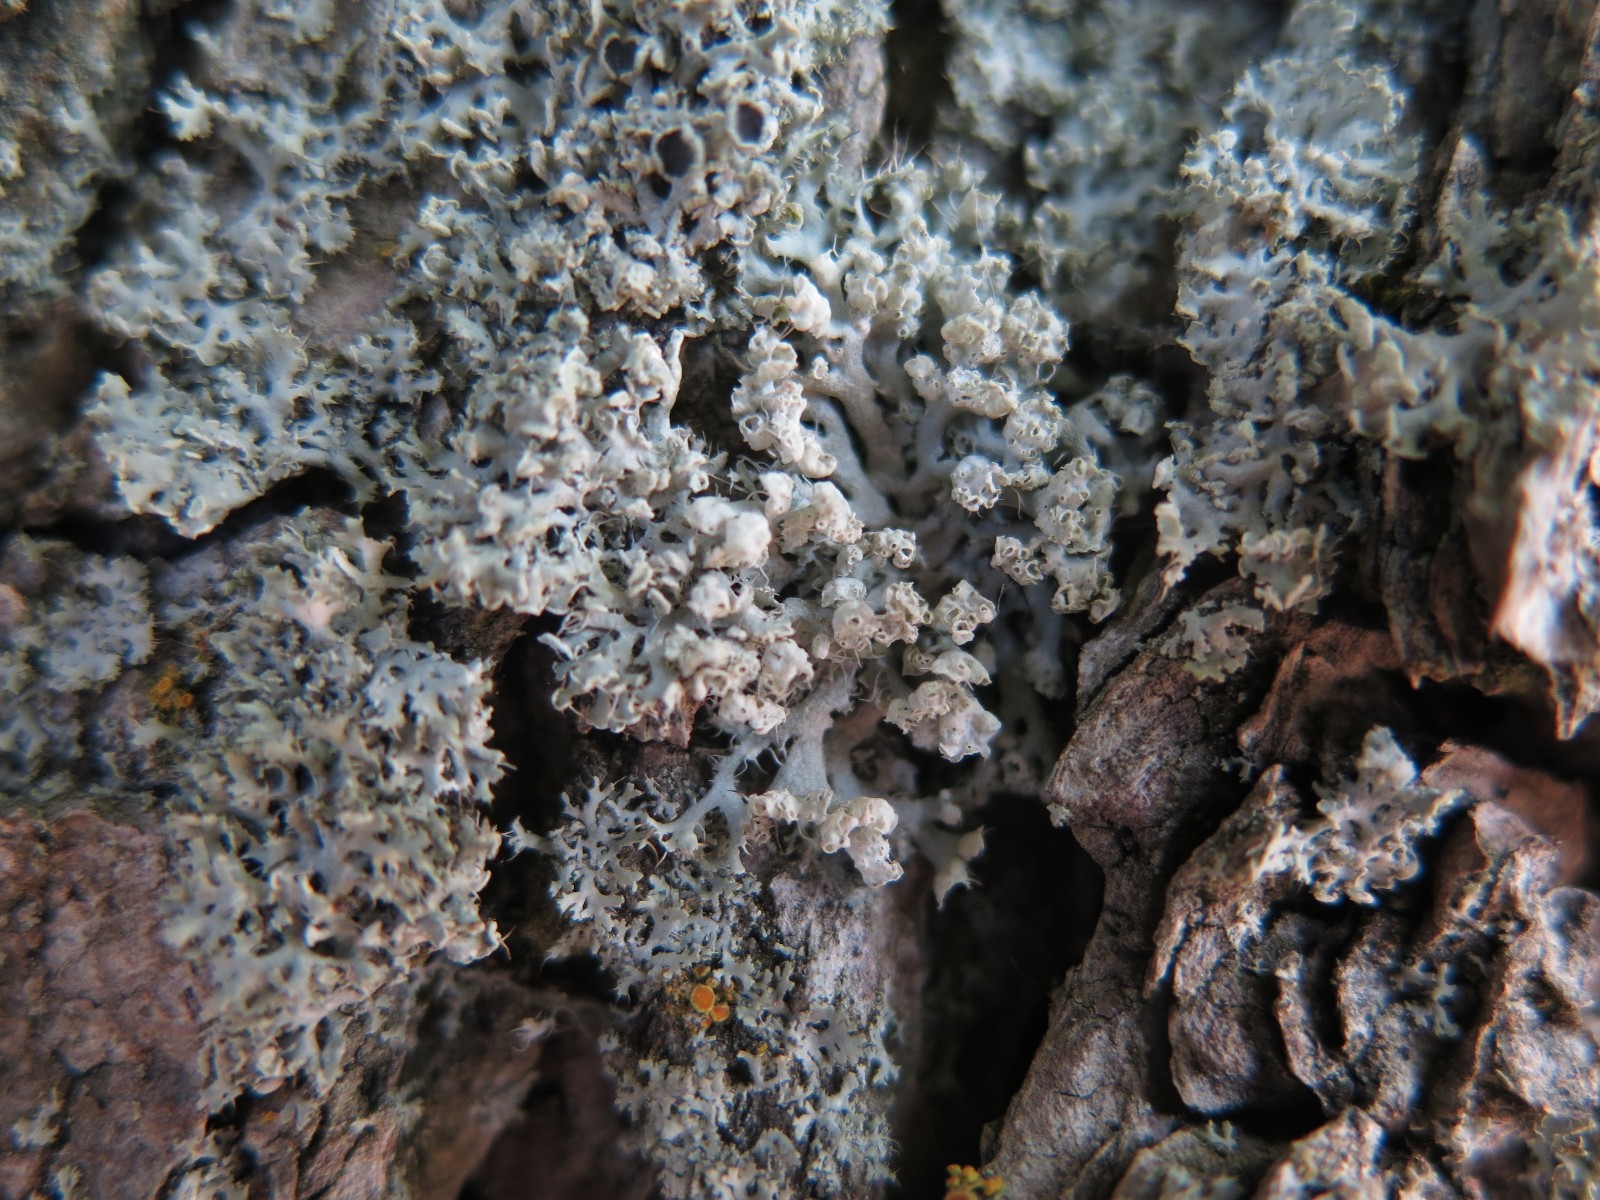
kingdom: Fungi
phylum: Ascomycota
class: Lecanoromycetes
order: Caliciales
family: Physciaceae
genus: Physcia
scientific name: Physcia adscendens
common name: hætte-rosetlav
